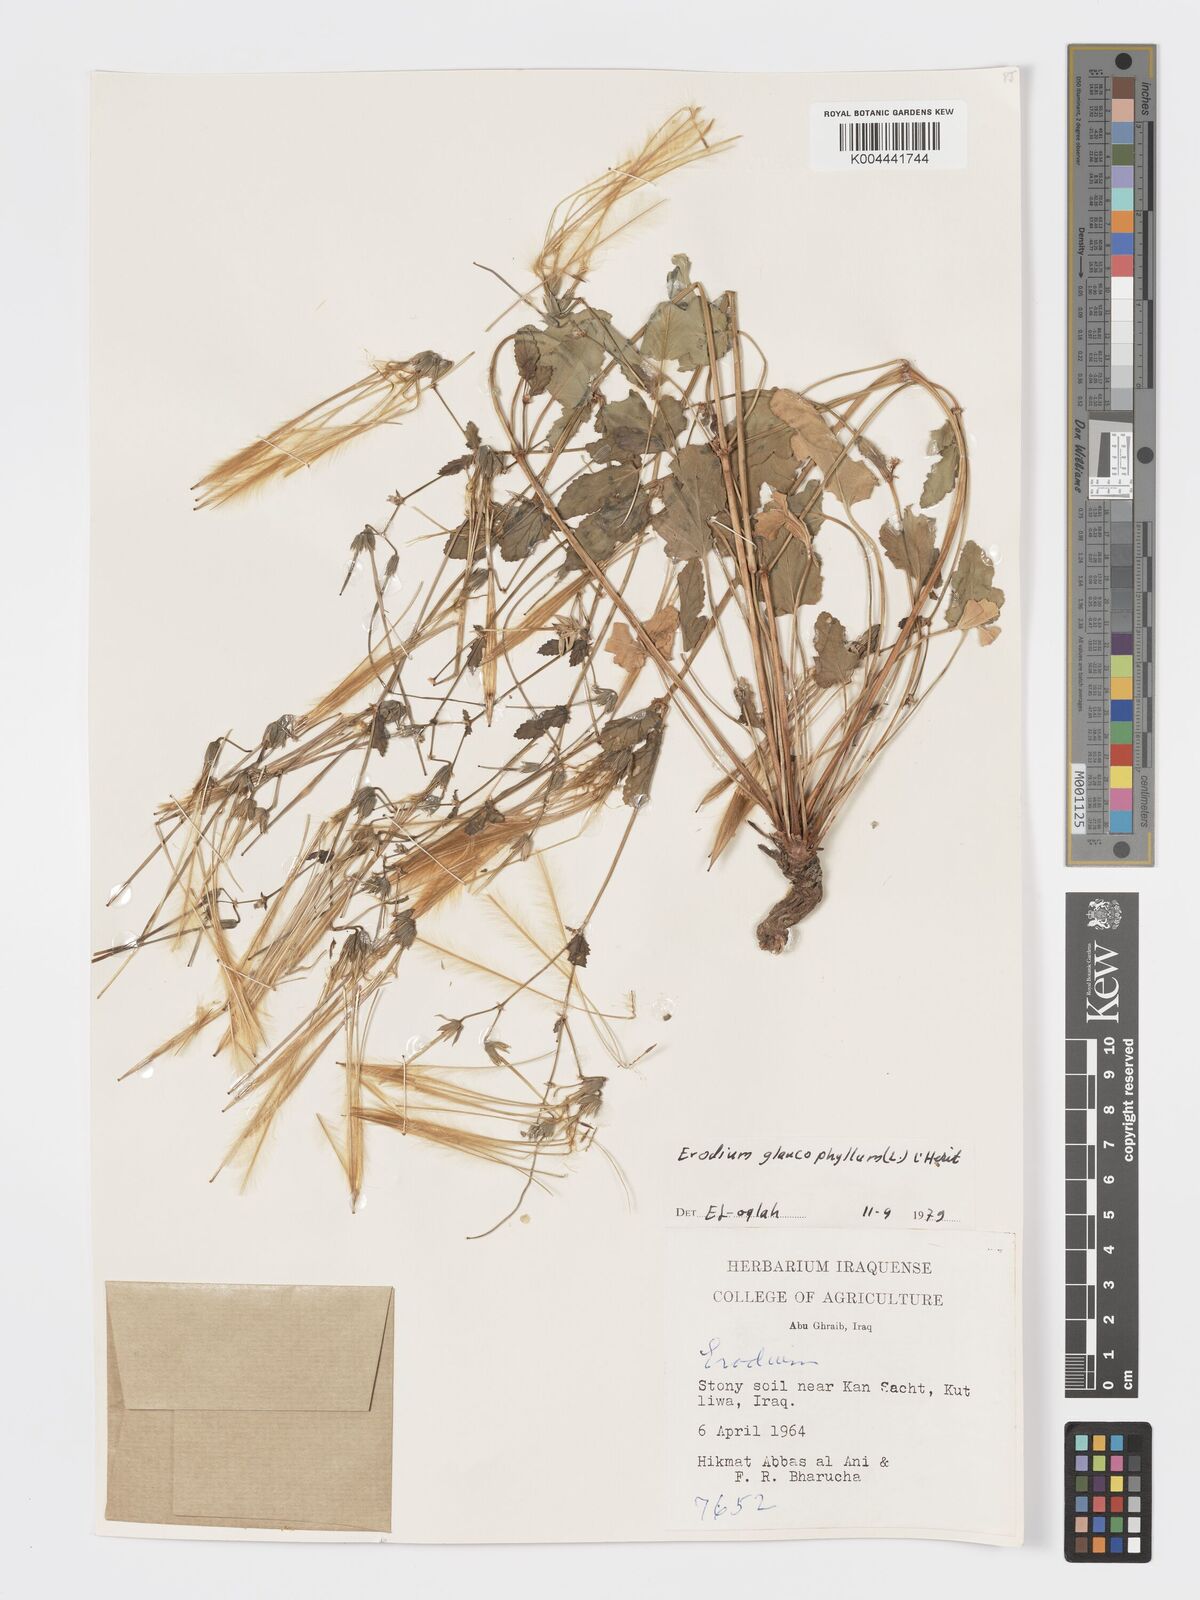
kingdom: Plantae
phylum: Tracheophyta
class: Magnoliopsida
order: Geraniales
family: Geraniaceae
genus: Erodium
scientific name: Erodium glaucophyllum
